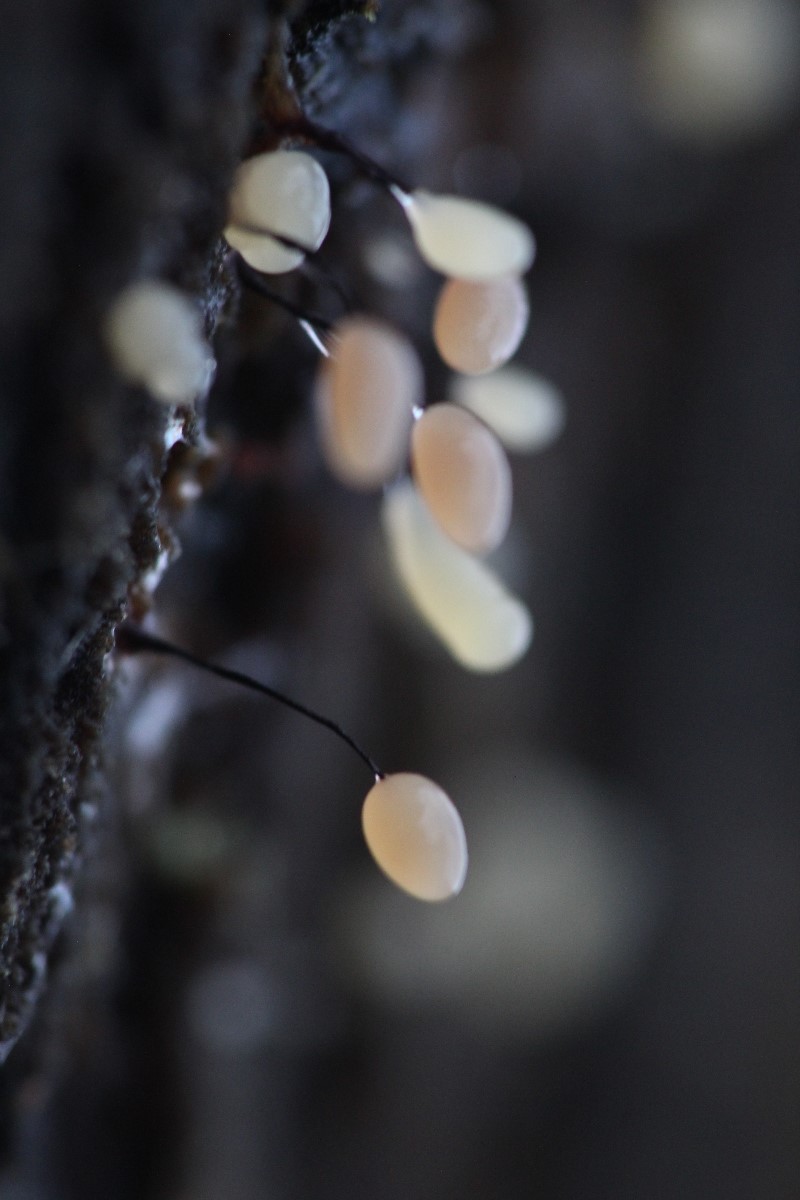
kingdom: Protozoa
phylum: Mycetozoa
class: Myxomycetes
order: Stemonitidales
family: Stemonitidaceae
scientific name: Stemonitidaceae
